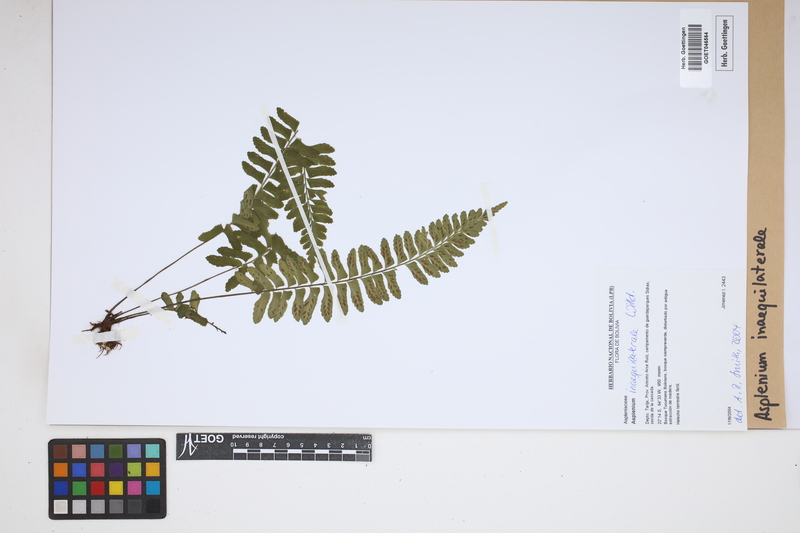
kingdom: Plantae
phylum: Tracheophyta
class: Polypodiopsida
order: Polypodiales
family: Aspleniaceae
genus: Asplenium
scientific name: Asplenium inaequilaterale
